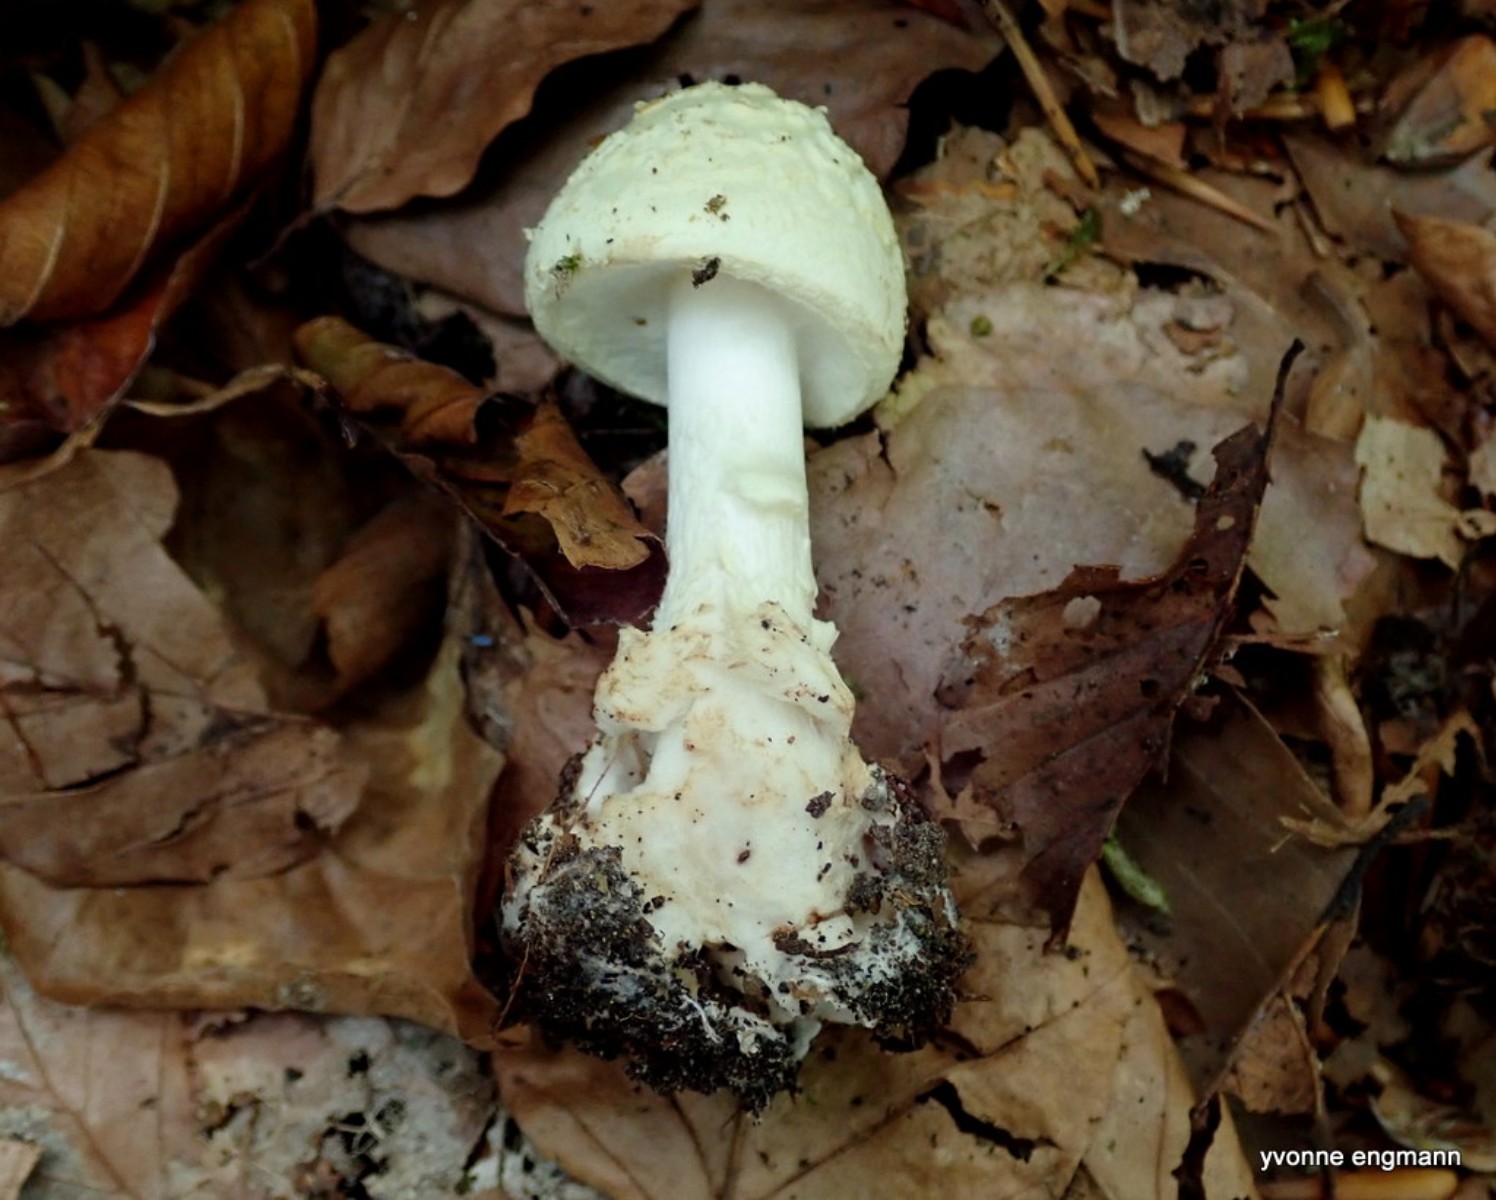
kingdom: Fungi
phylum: Basidiomycota
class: Agaricomycetes
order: Agaricales
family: Amanitaceae
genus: Amanita
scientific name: Amanita citrina
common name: kugleknoldet fluesvamp
